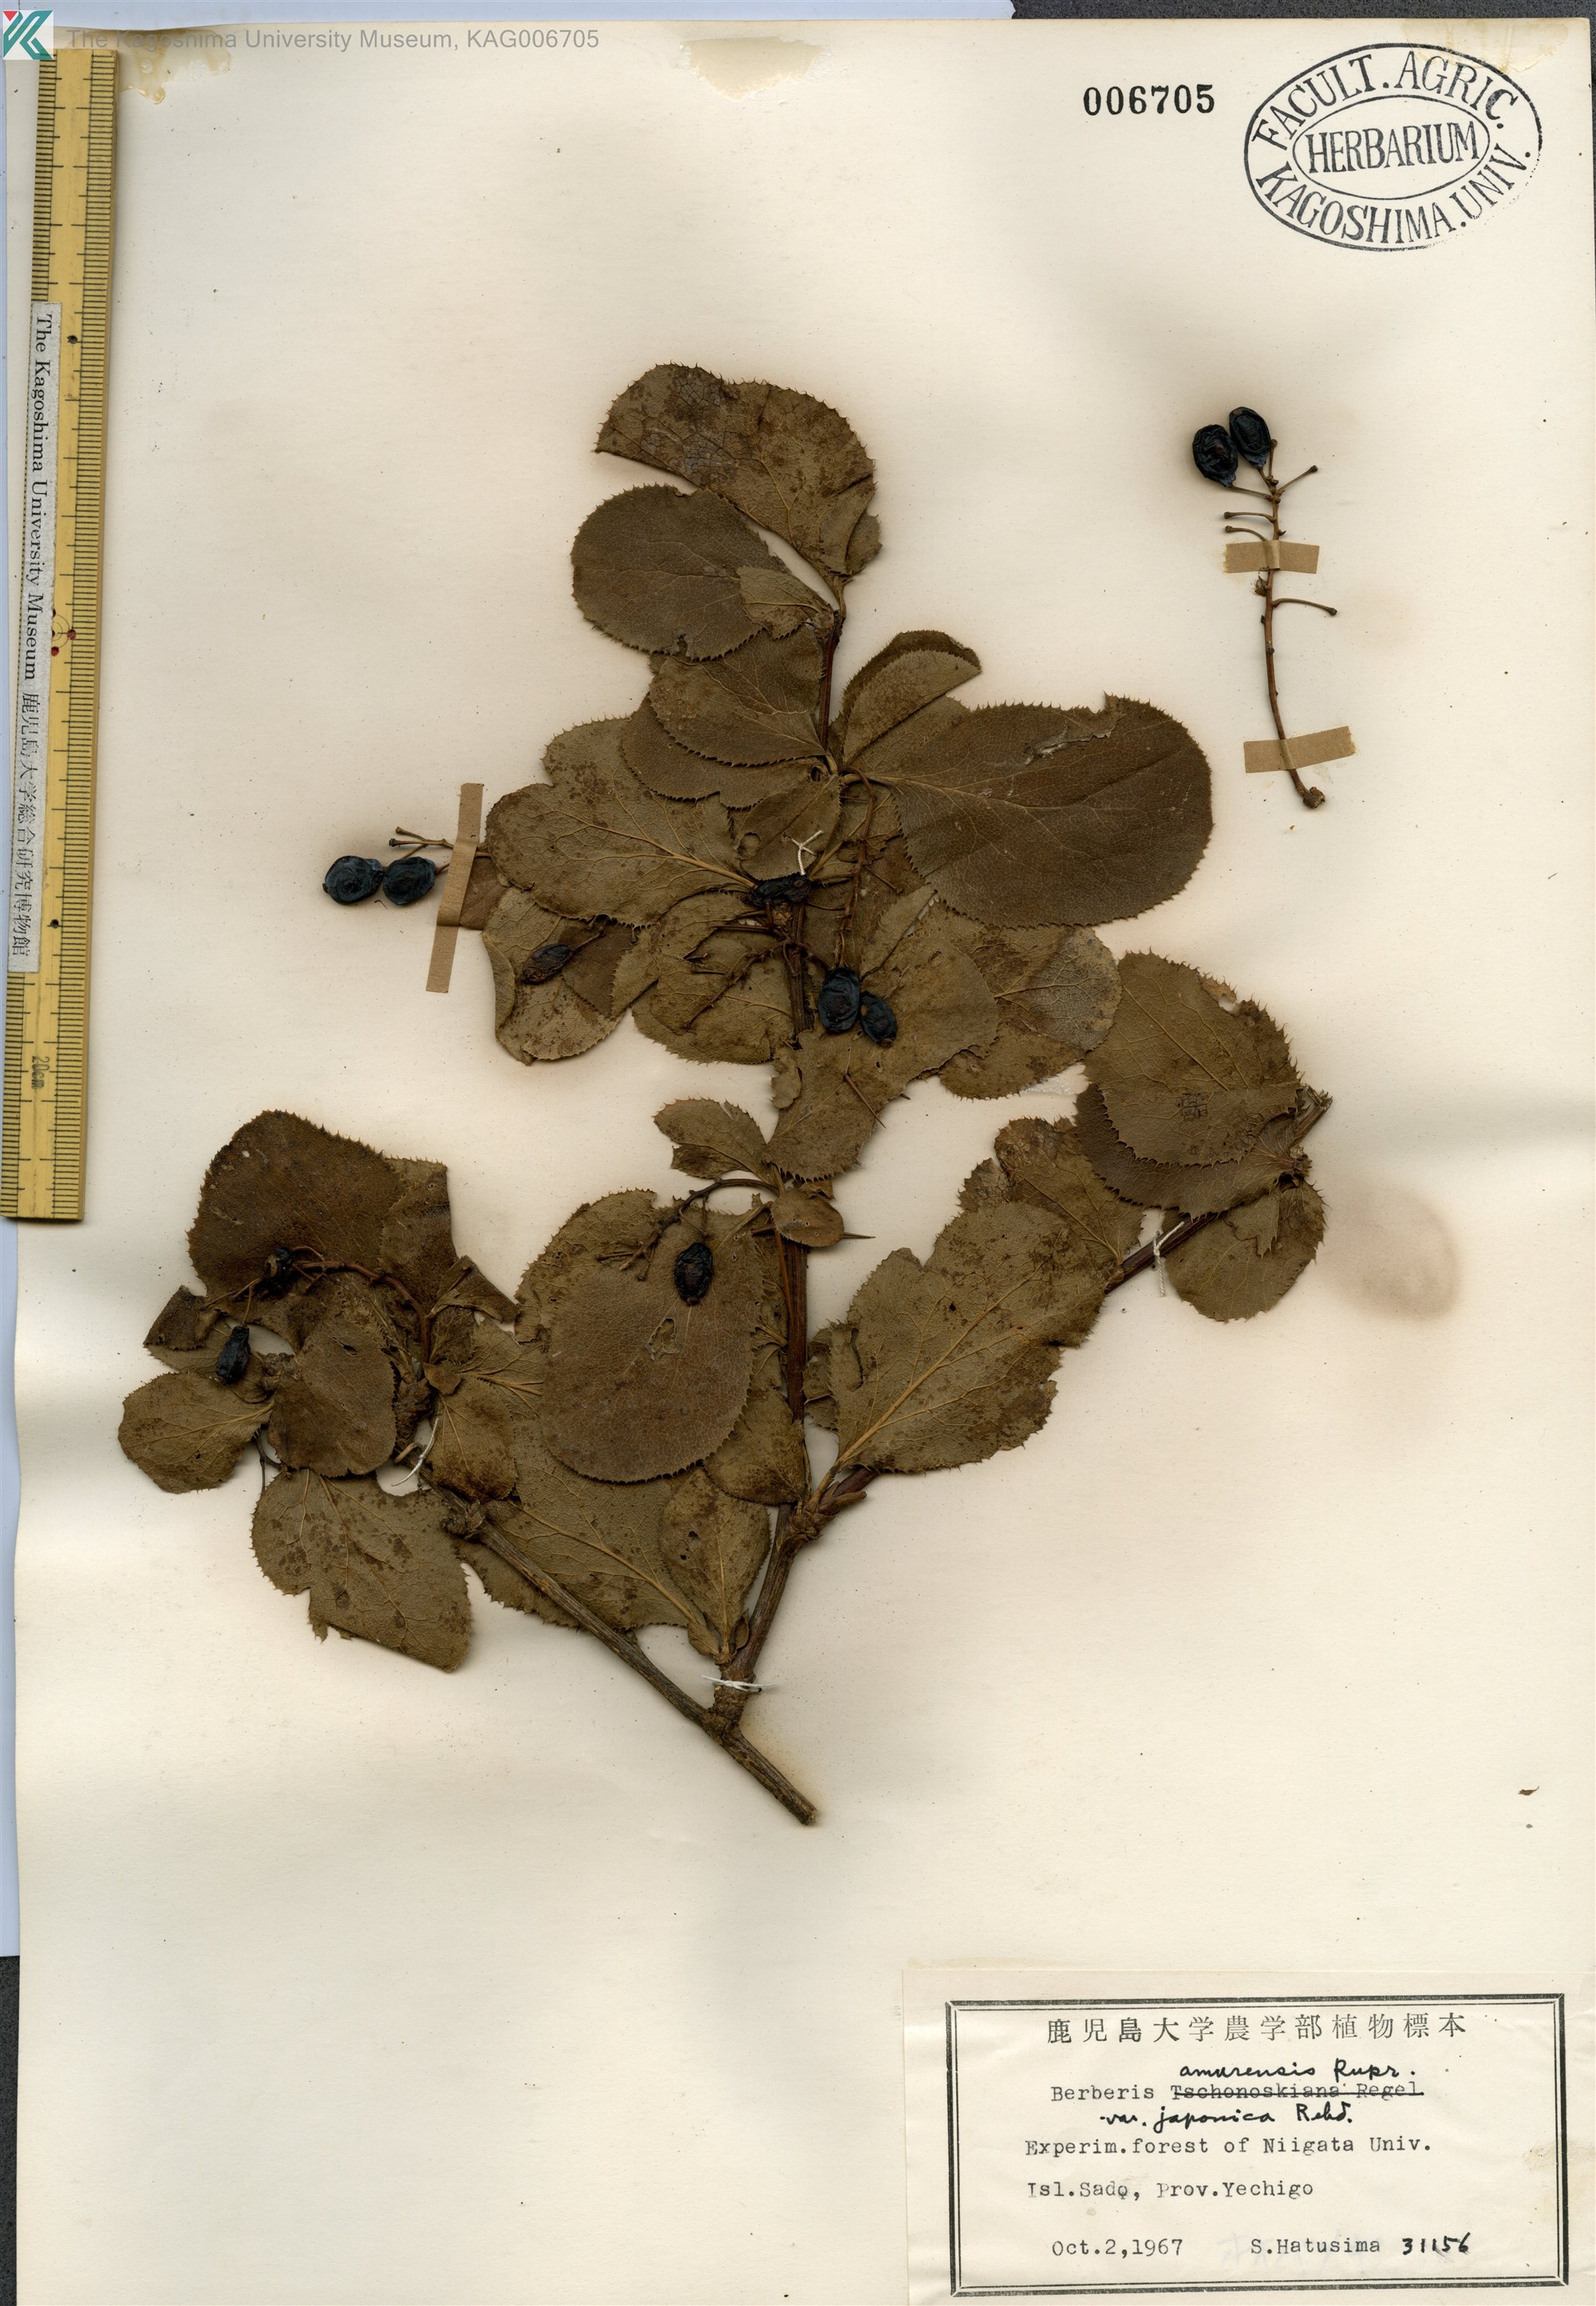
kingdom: Plantae
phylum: Tracheophyta
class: Magnoliopsida
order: Ranunculales
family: Berberidaceae
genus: Berberis
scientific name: Berberis amurensis
